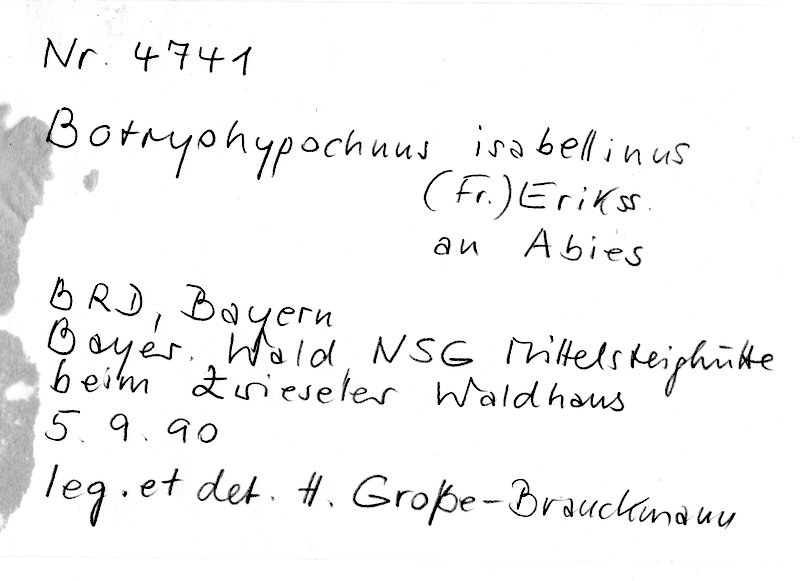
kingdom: Plantae
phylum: Tracheophyta
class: Pinopsida
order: Pinales
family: Pinaceae
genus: Abies
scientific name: Abies
